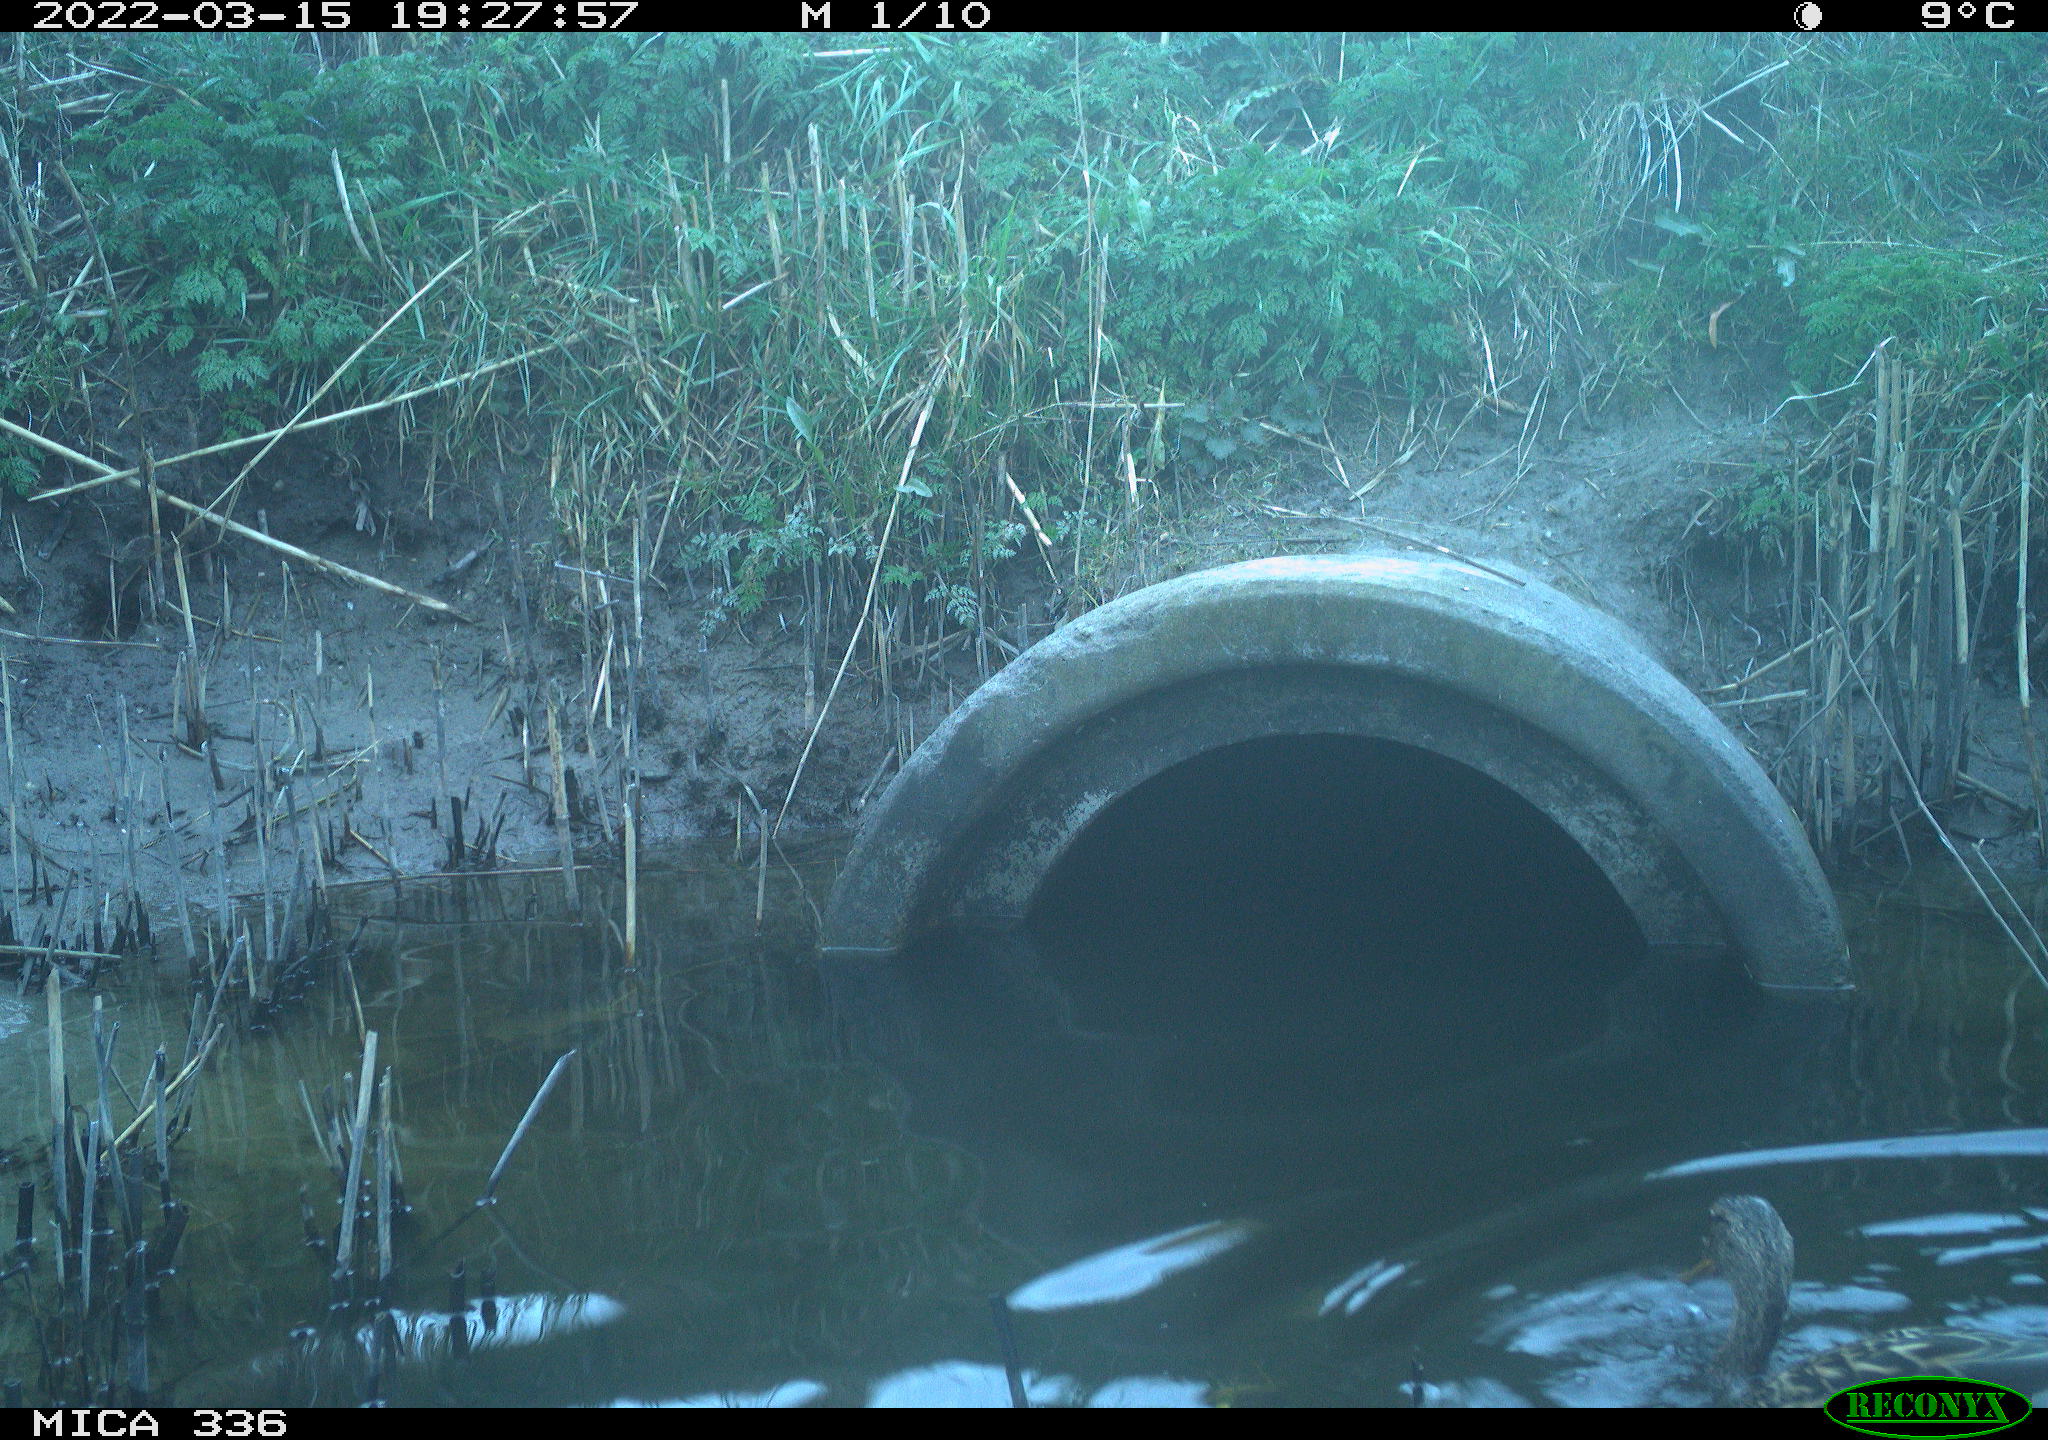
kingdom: Animalia
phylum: Chordata
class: Aves
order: Anseriformes
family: Anatidae
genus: Anas
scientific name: Anas platyrhynchos
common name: Mallard
